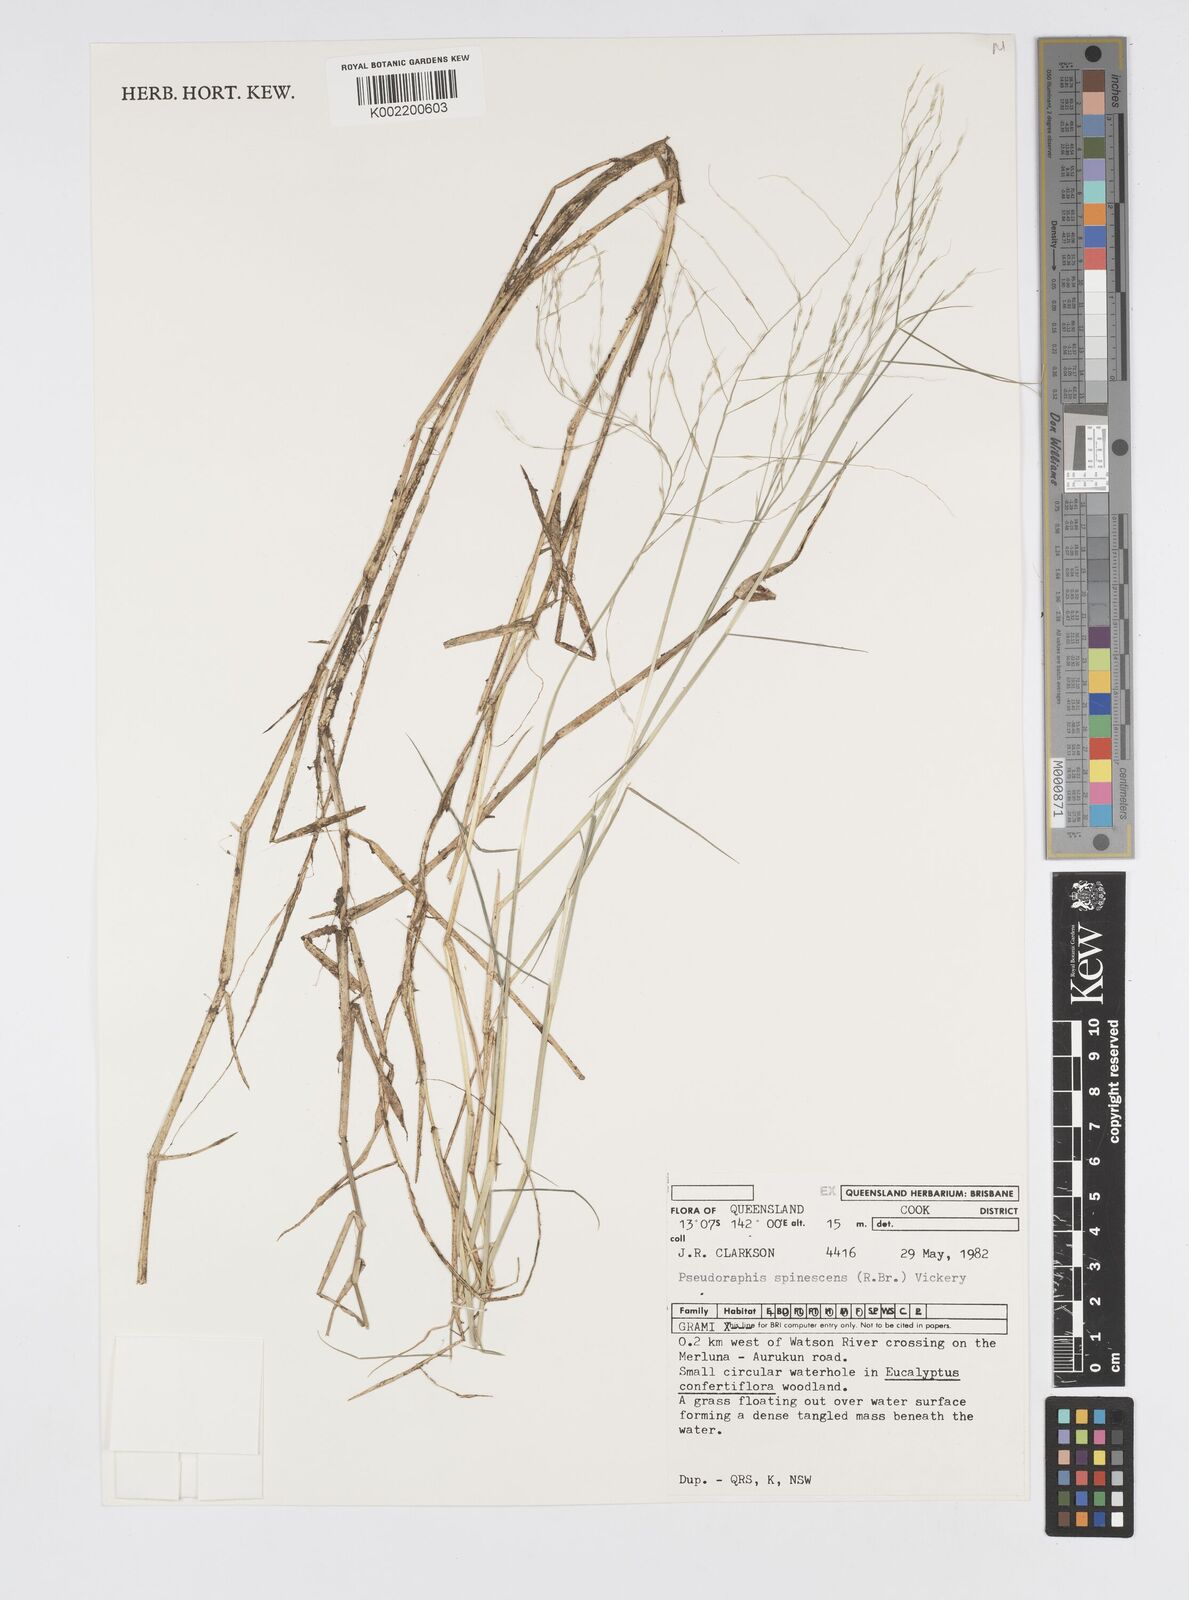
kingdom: Plantae
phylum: Tracheophyta
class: Liliopsida
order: Poales
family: Poaceae
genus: Pseudoraphis
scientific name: Pseudoraphis spinescens
